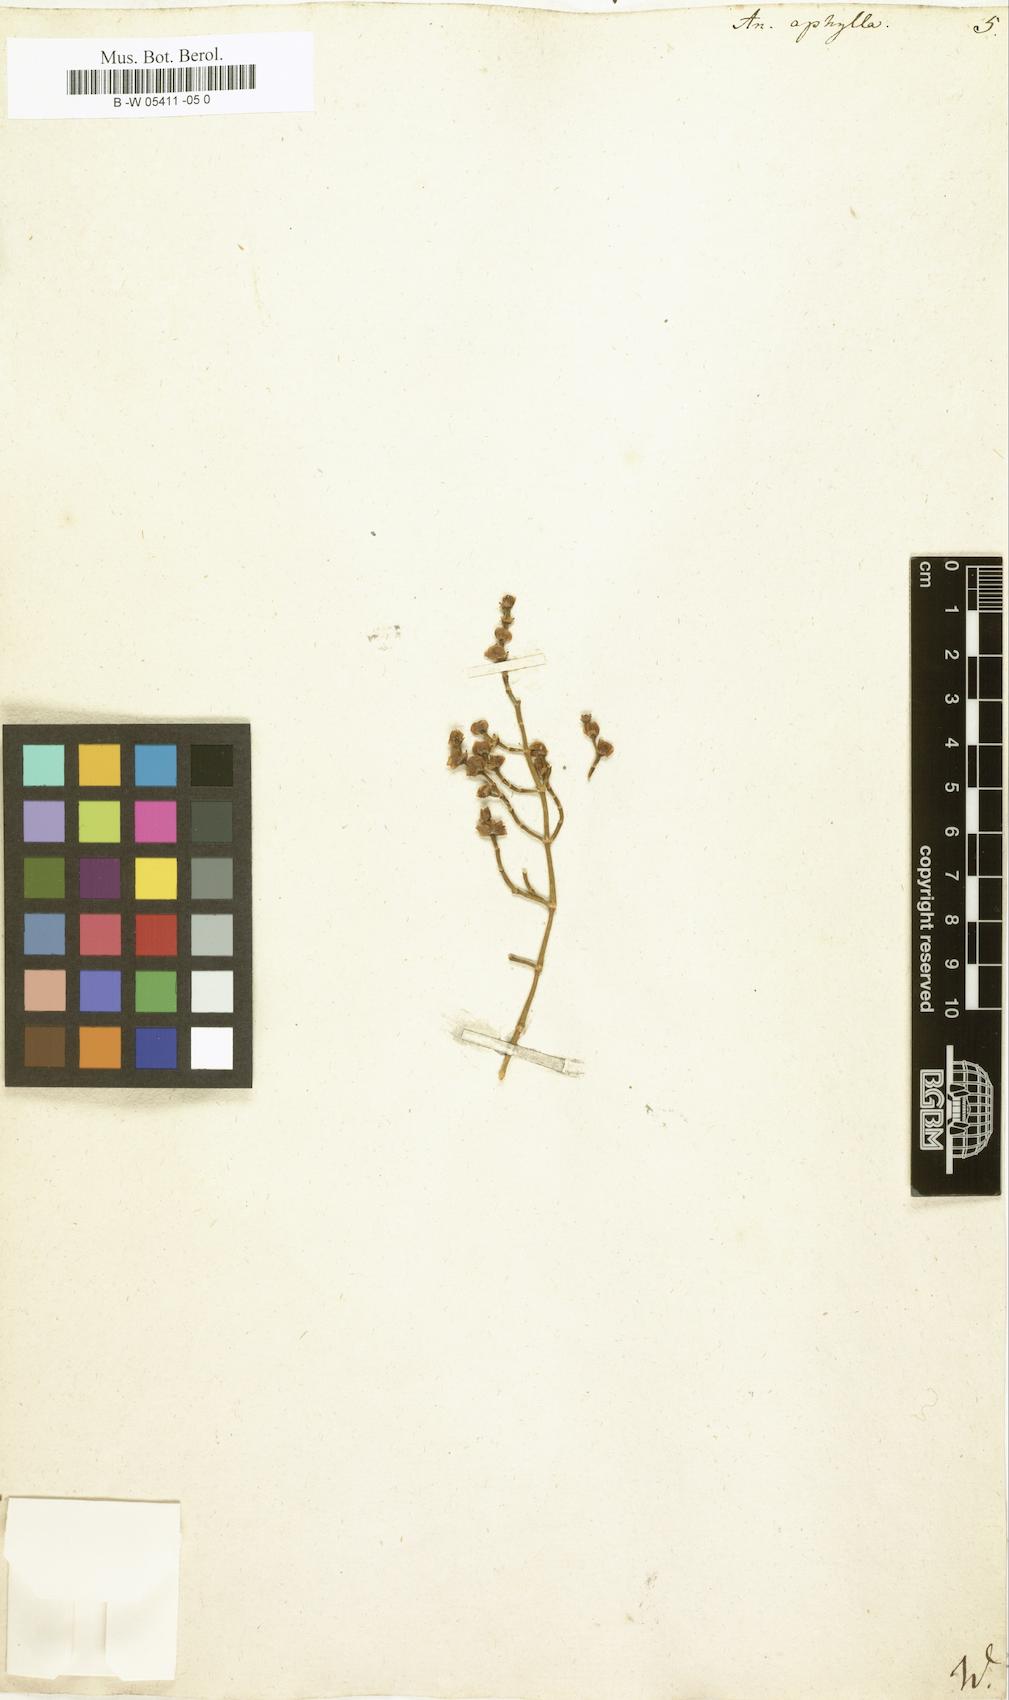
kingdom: Plantae
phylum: Tracheophyta
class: Magnoliopsida
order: Caryophyllales
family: Amaranthaceae
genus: Anabasis
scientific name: Anabasis aphylla
